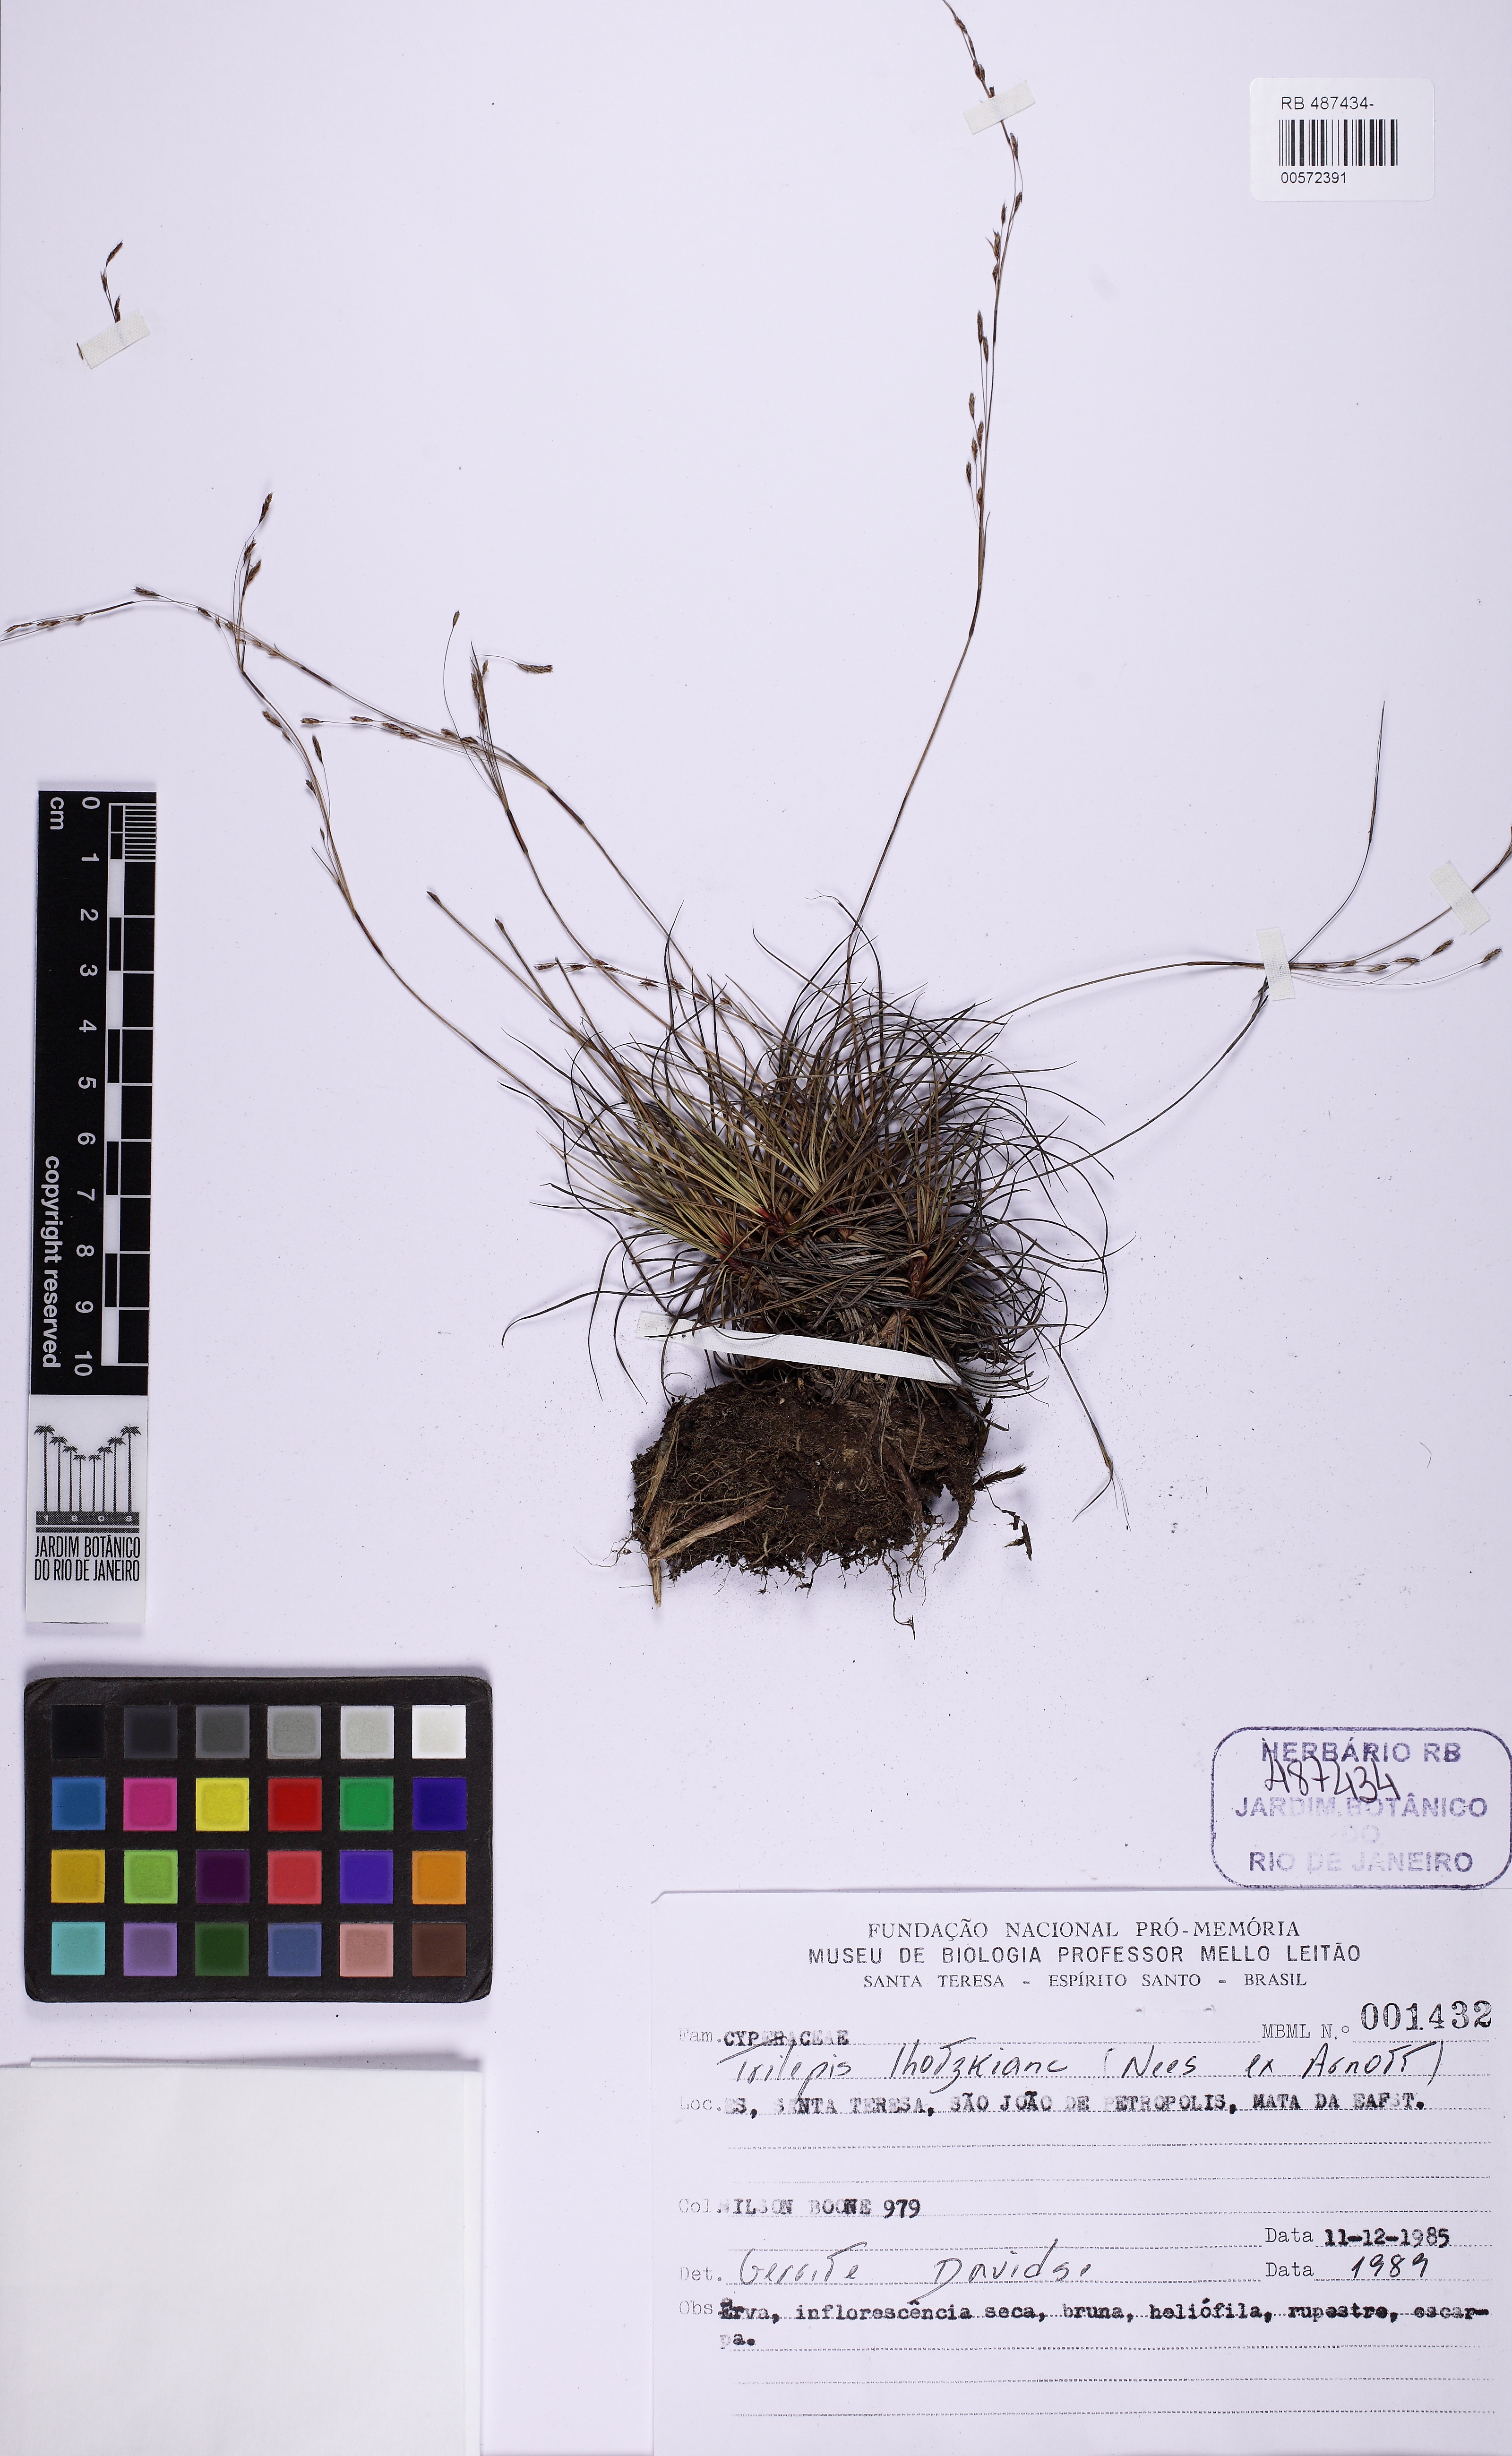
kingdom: Plantae
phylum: Tracheophyta
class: Liliopsida
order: Poales
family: Cyperaceae
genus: Trilepis
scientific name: Trilepis lhotzkiana
